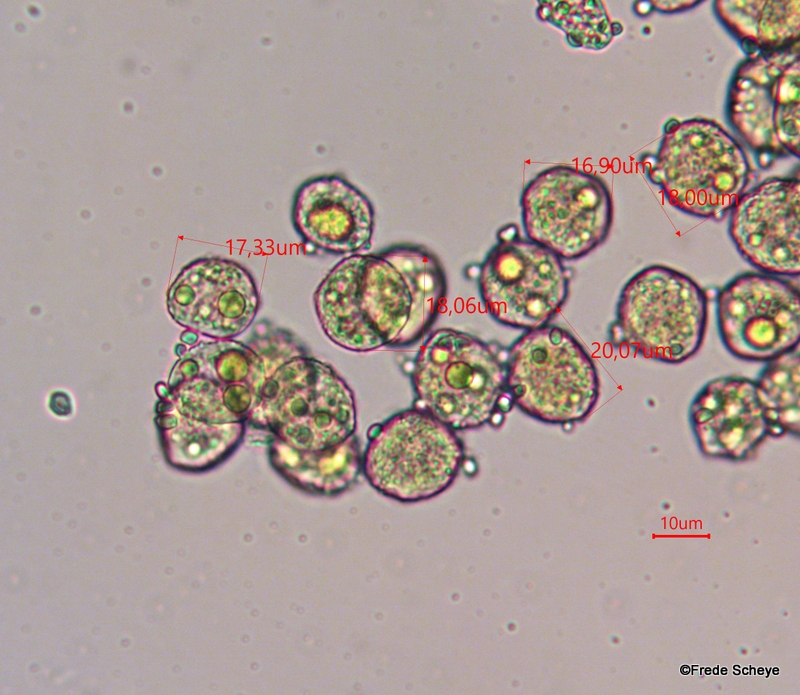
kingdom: Fungi
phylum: Basidiomycota
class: Pucciniomycetes
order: Pucciniales
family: Pucciniaceae
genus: Puccinia
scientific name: Puccinia albescens
